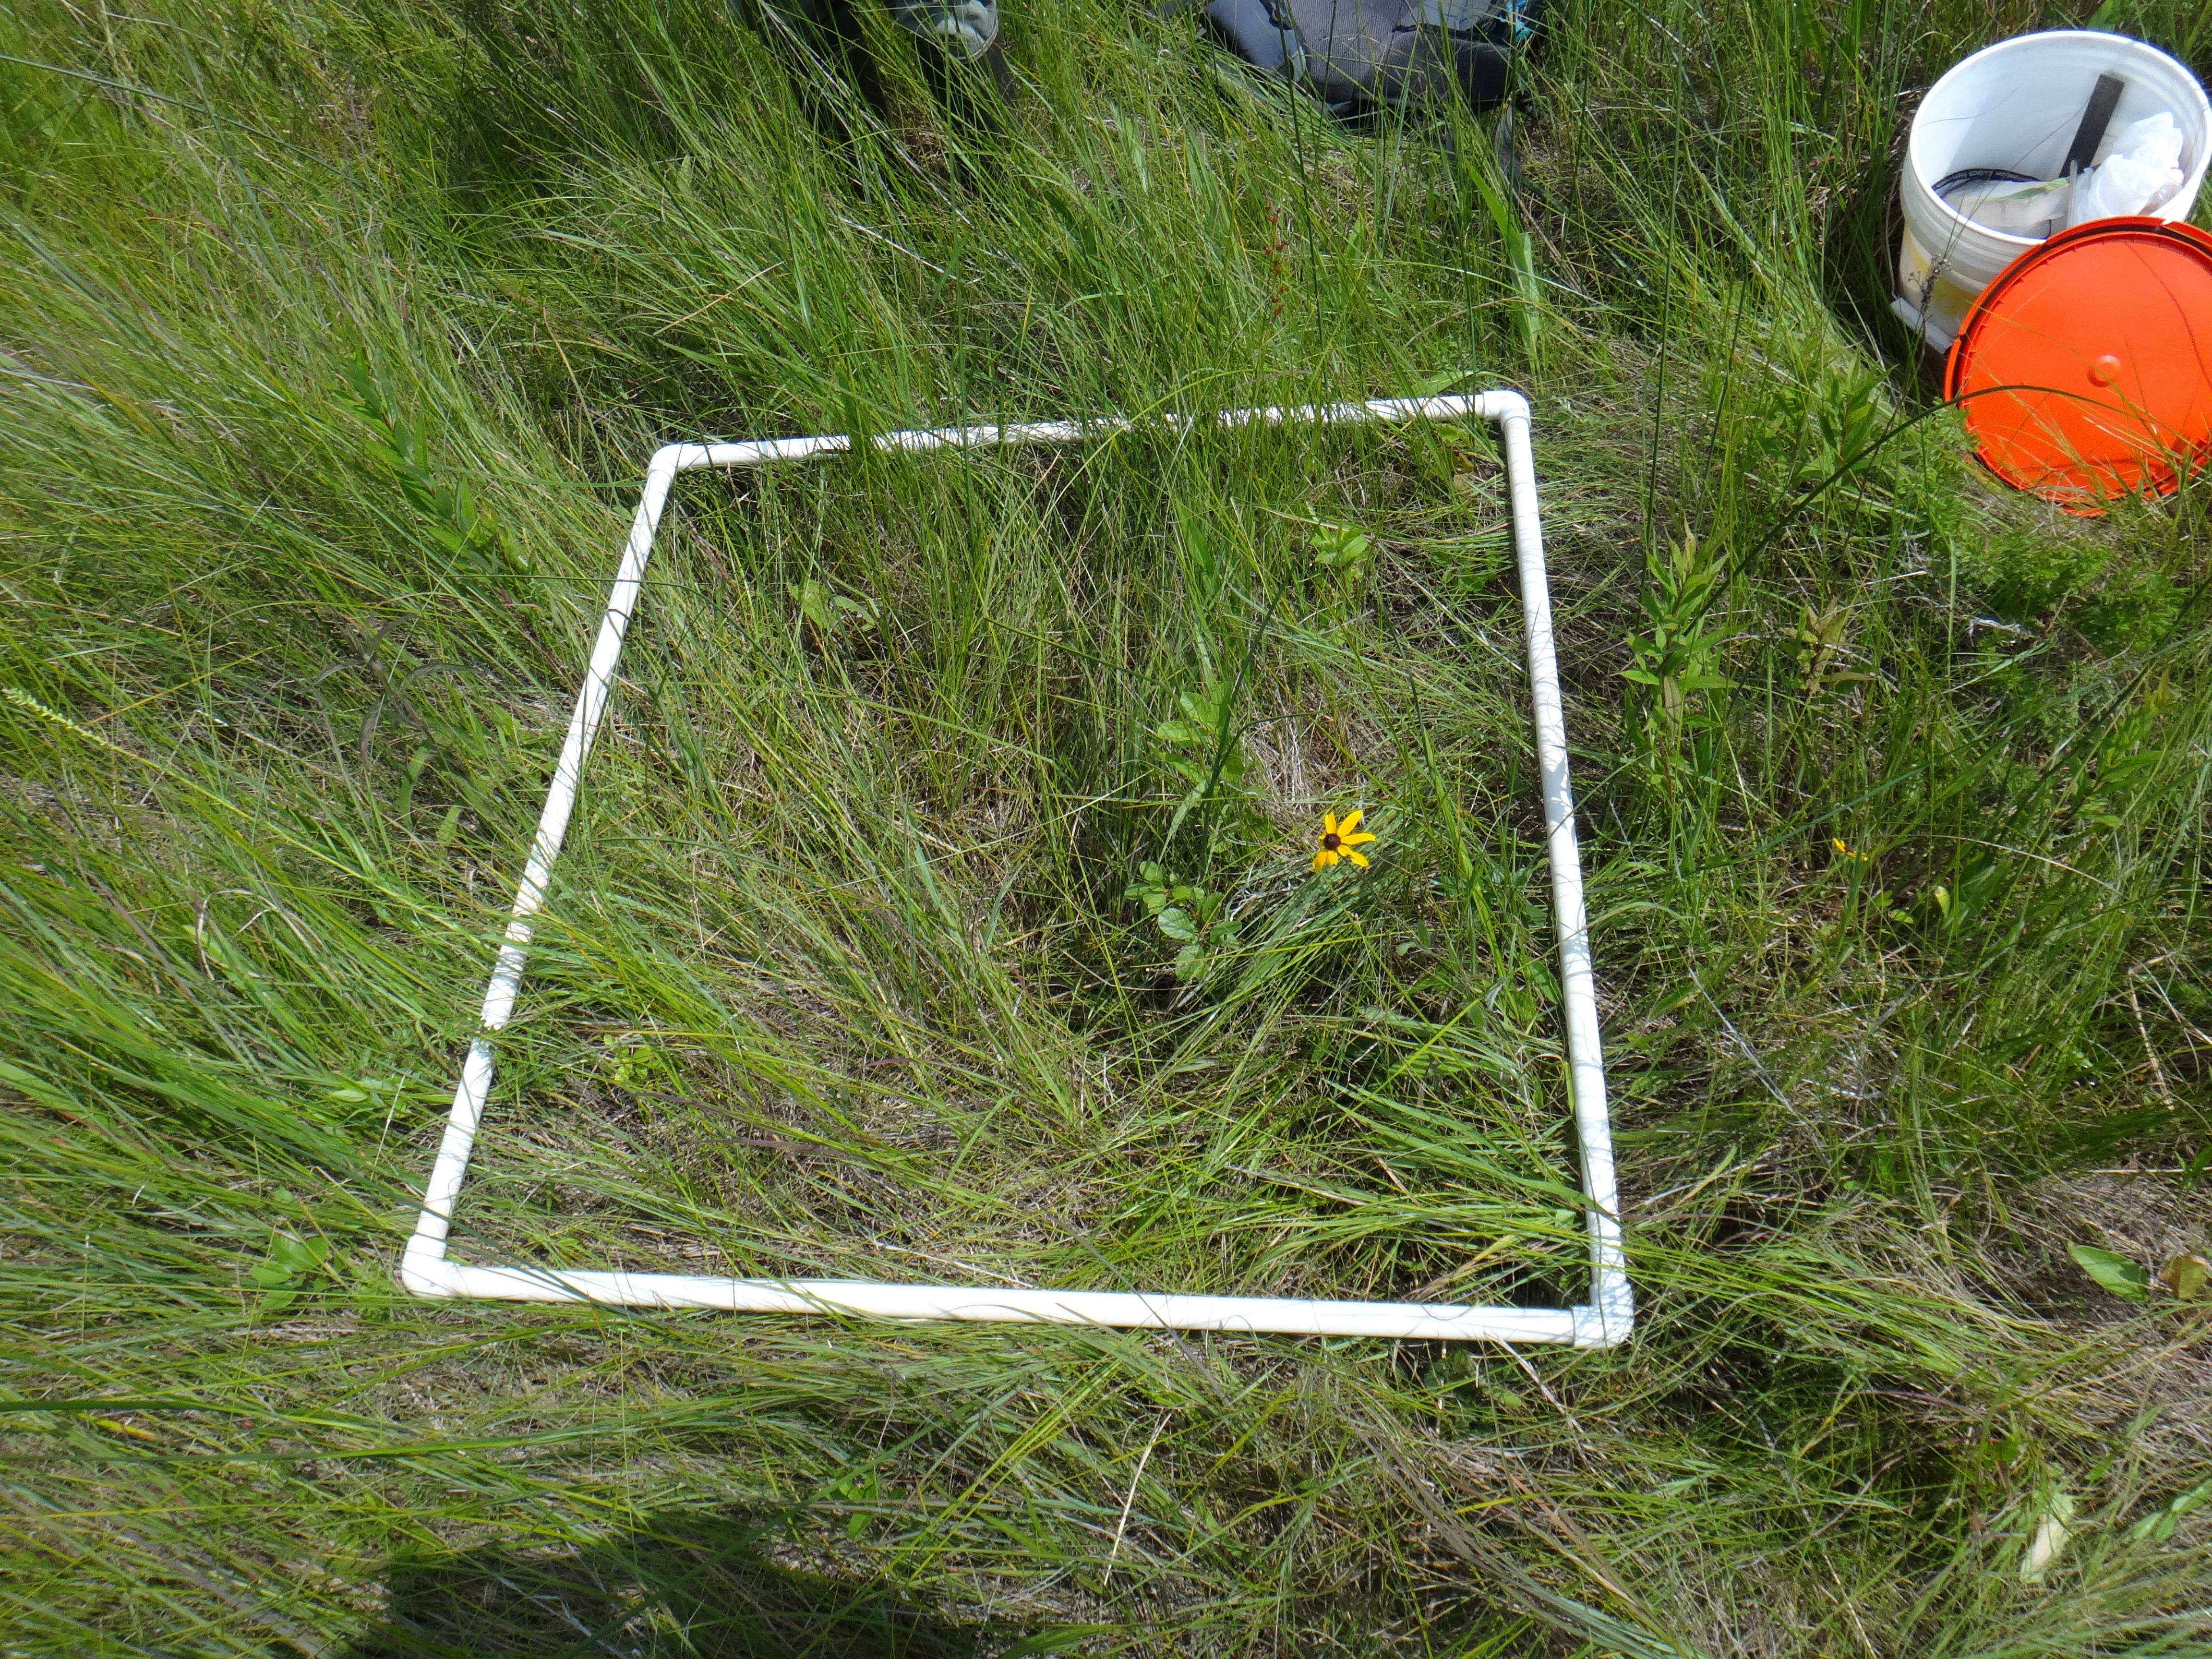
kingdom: Plantae
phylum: Tracheophyta
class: Liliopsida
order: Poales
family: Cyperaceae
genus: Carex
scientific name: Carex buxbaumii
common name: Club sedge
